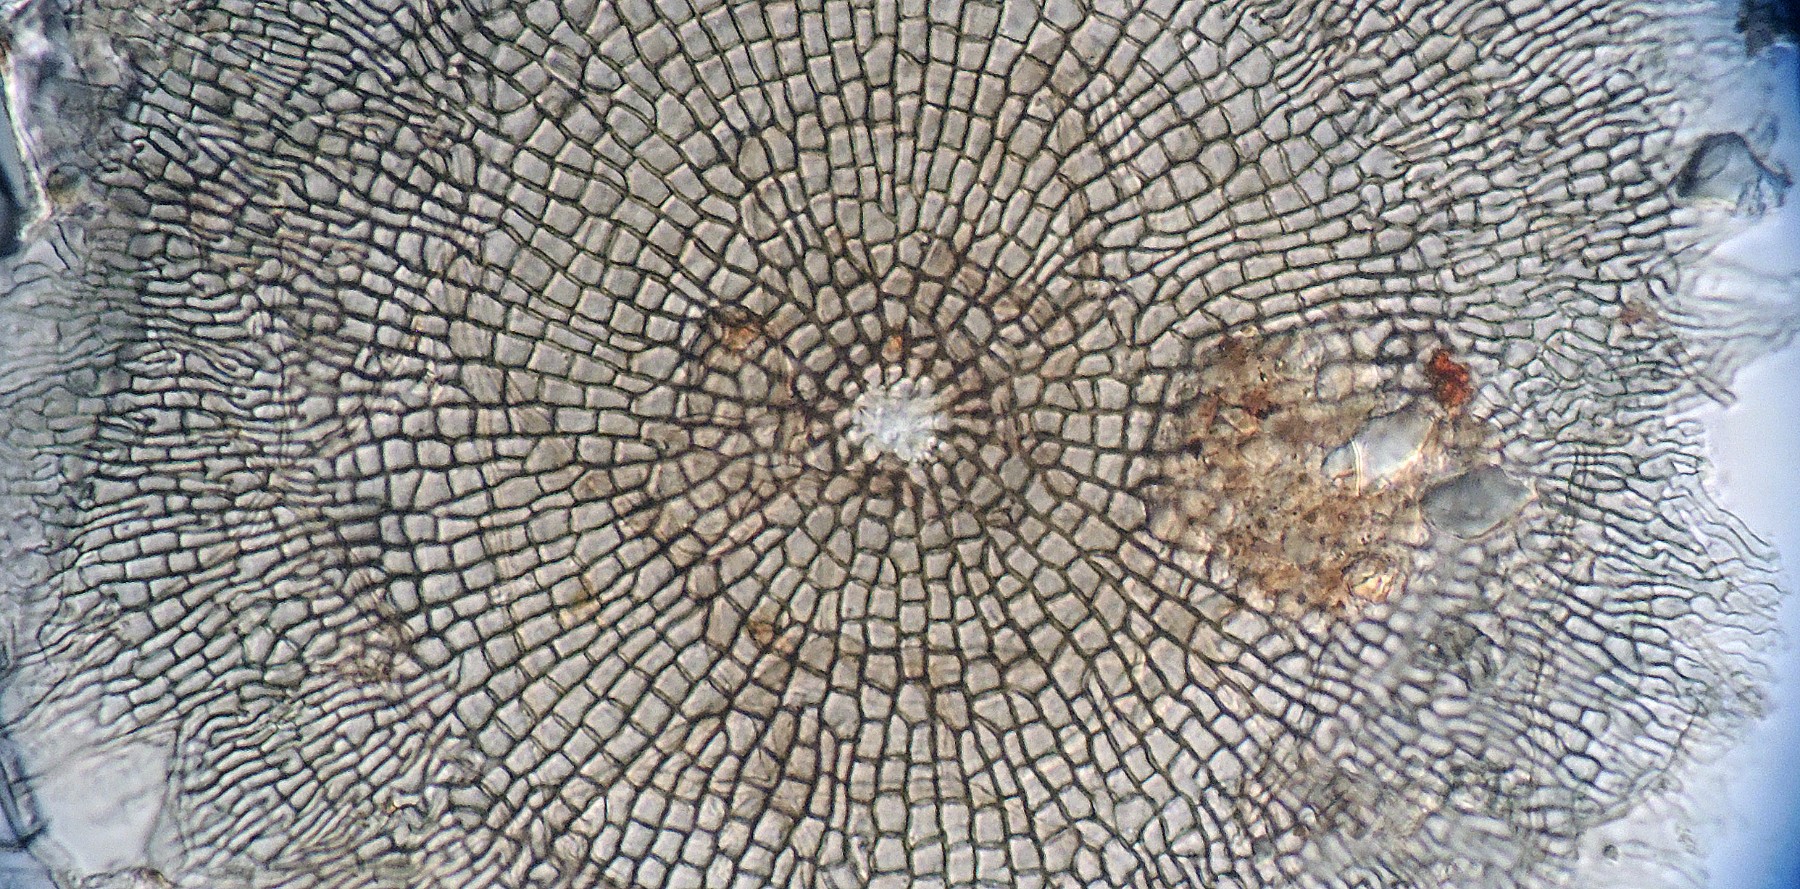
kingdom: Fungi
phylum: Ascomycota
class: Dothideomycetes
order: Microthyriales
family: Microthyriaceae
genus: Microthyrium
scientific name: Microthyrium ciliatum
